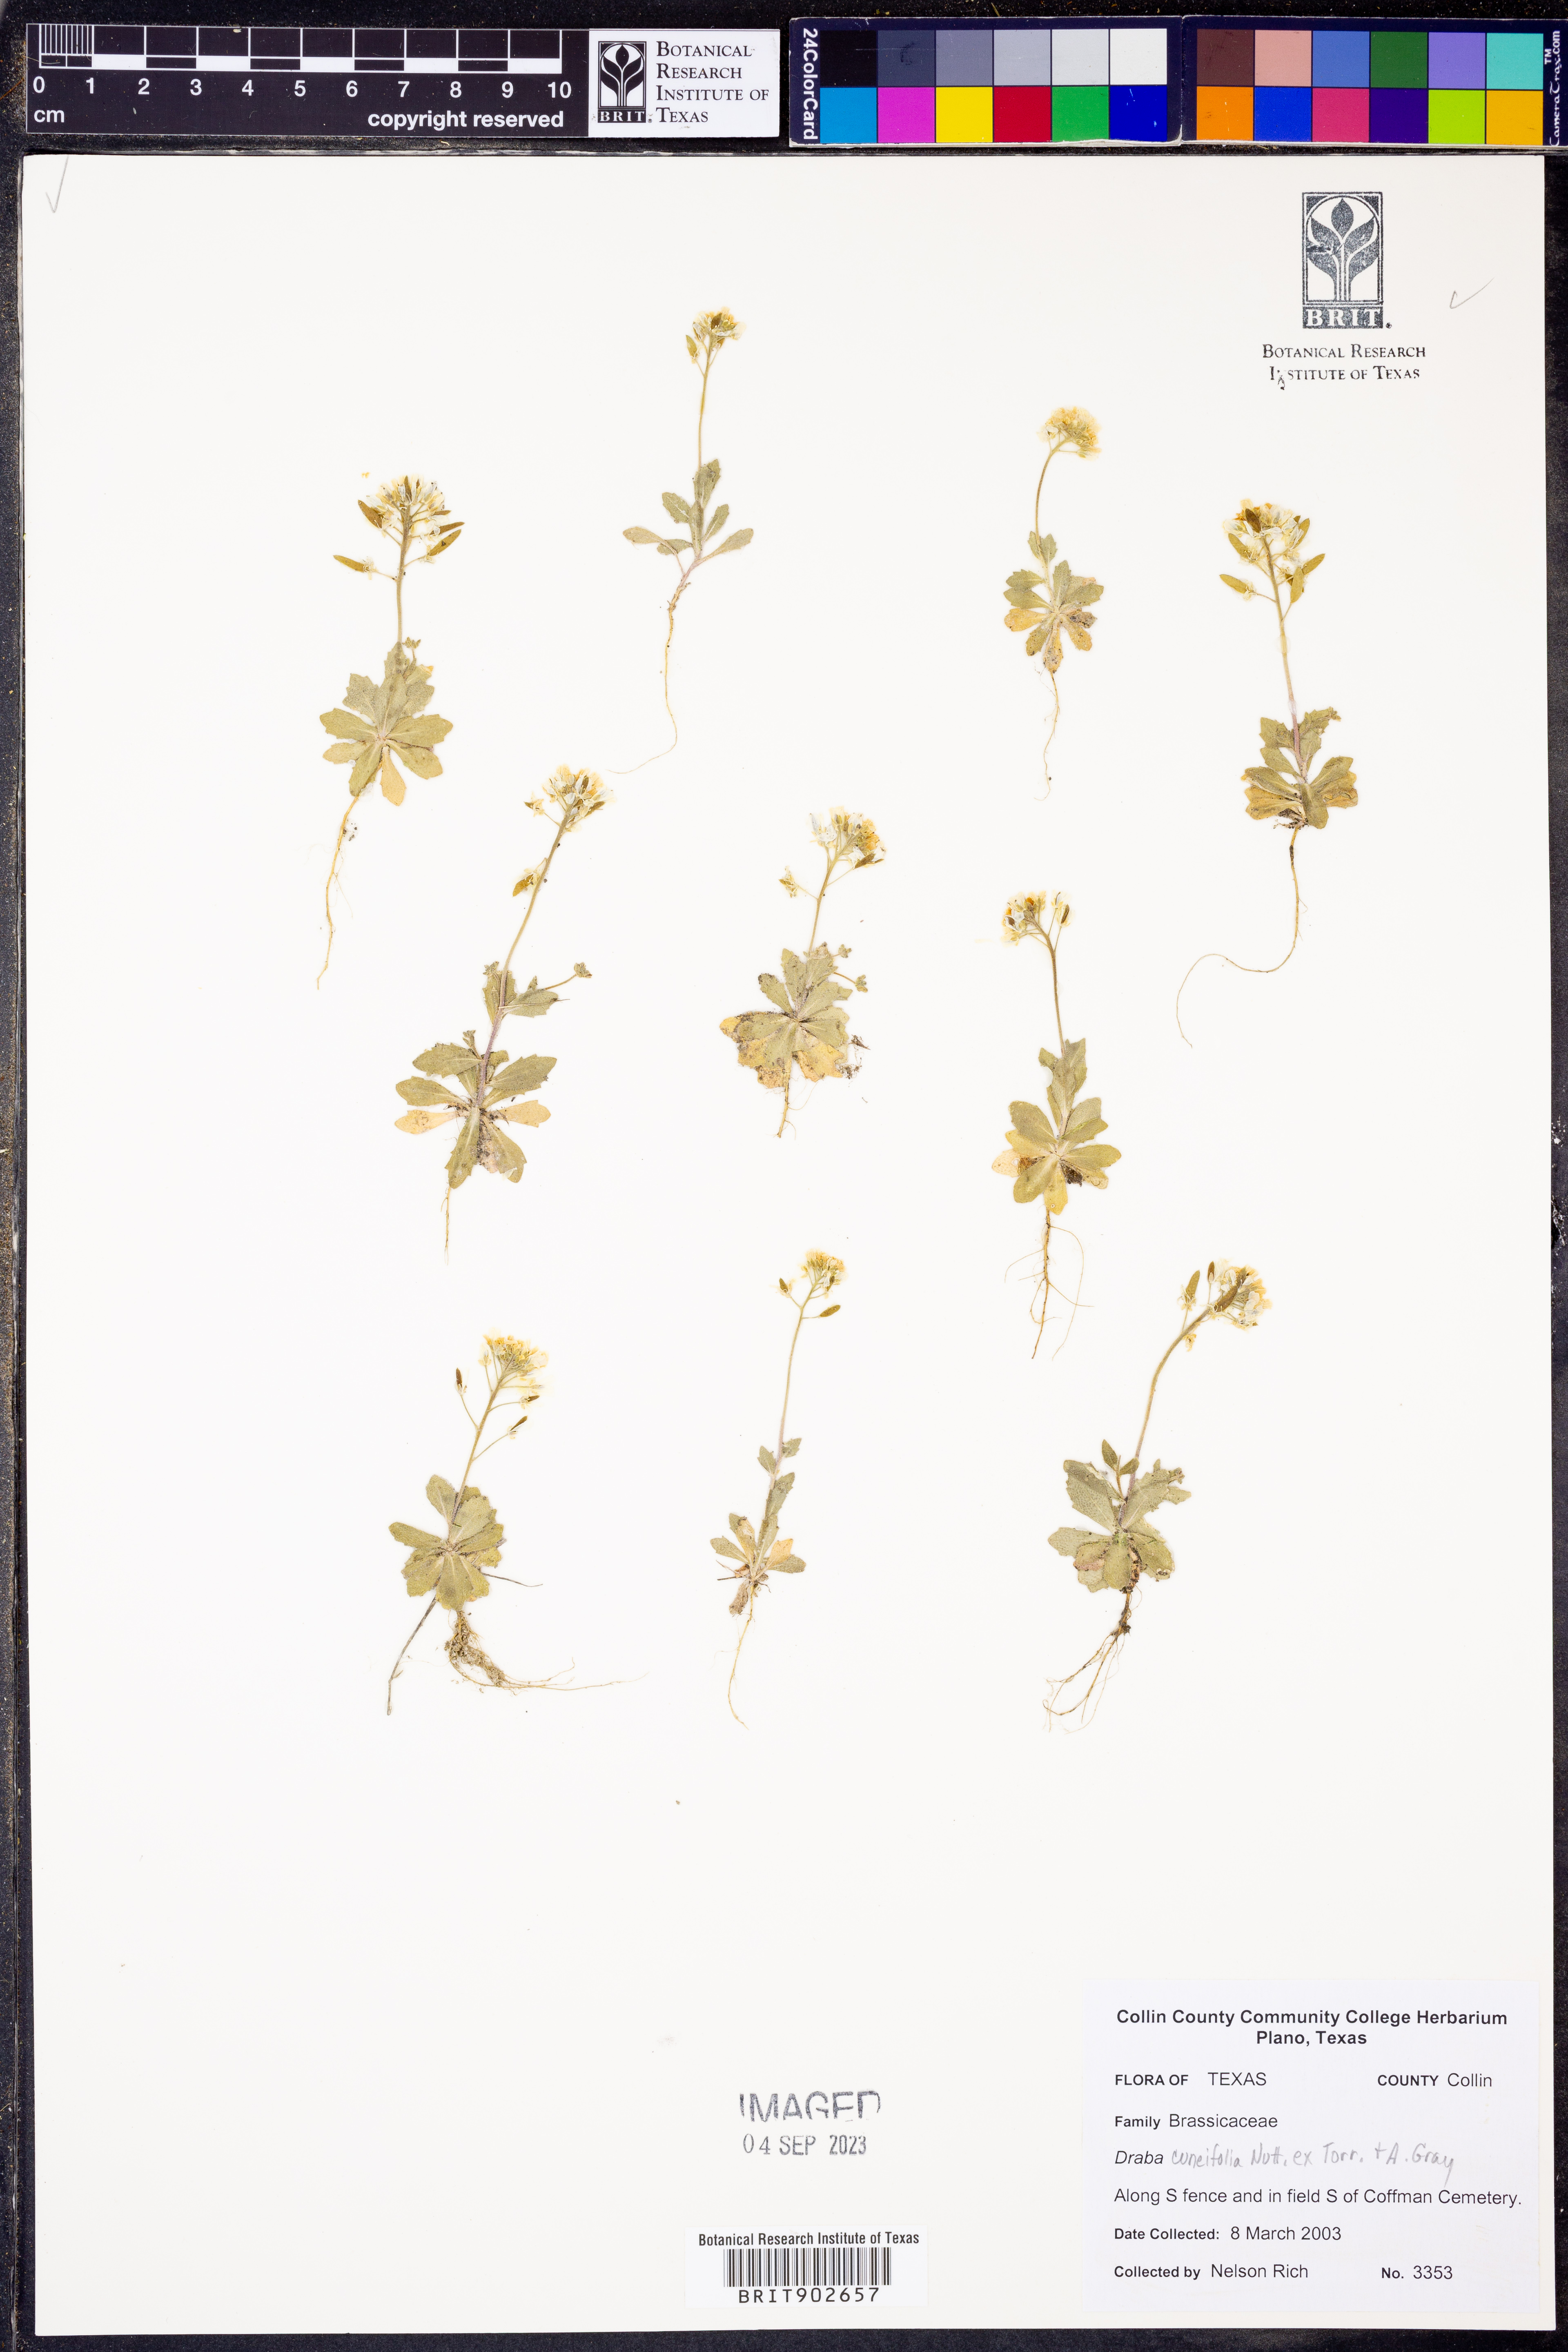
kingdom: Plantae
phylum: Tracheophyta
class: Magnoliopsida
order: Brassicales
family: Brassicaceae
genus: Tomostima
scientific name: Tomostima cuneifolia
